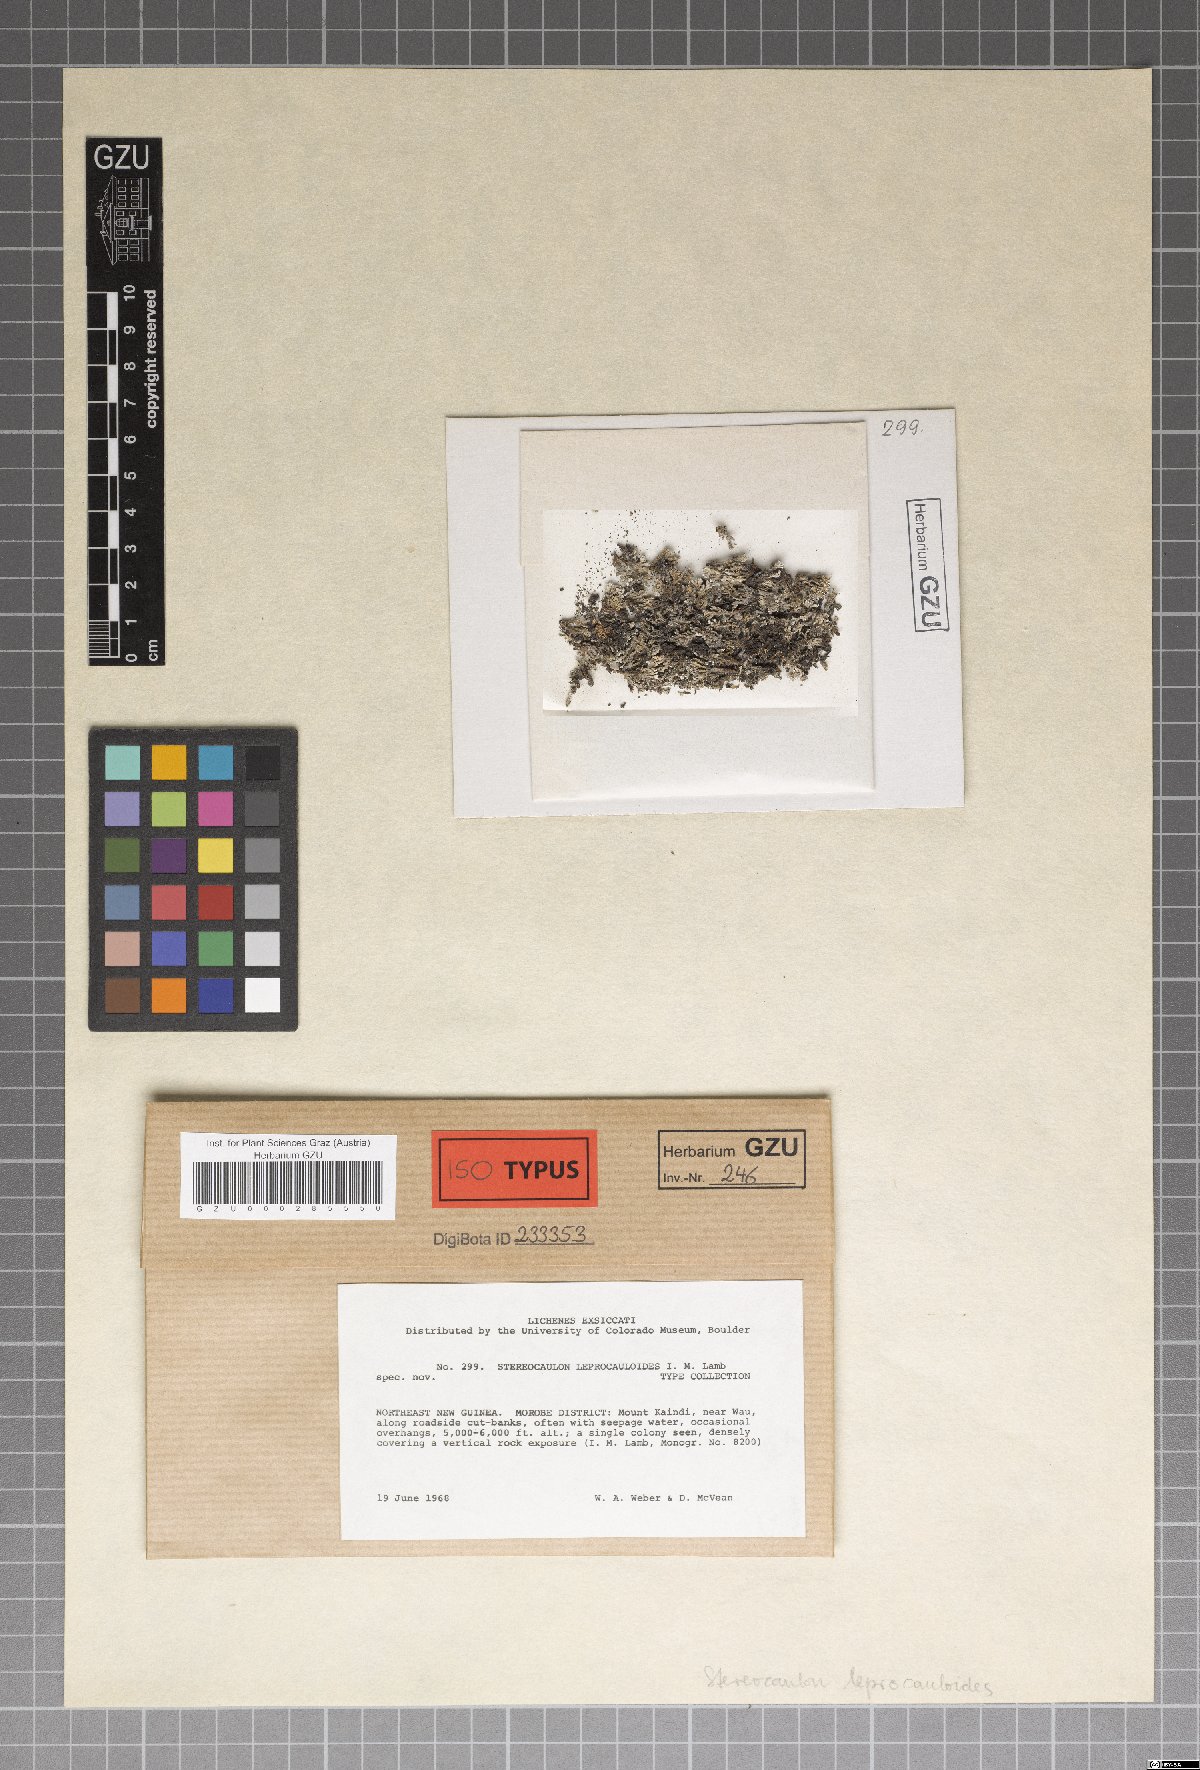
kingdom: Fungi
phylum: Ascomycota
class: Lecanoromycetes
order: Lecanorales
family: Stereocaulaceae
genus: Stereocaulon
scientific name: Stereocaulon leprocauloides
